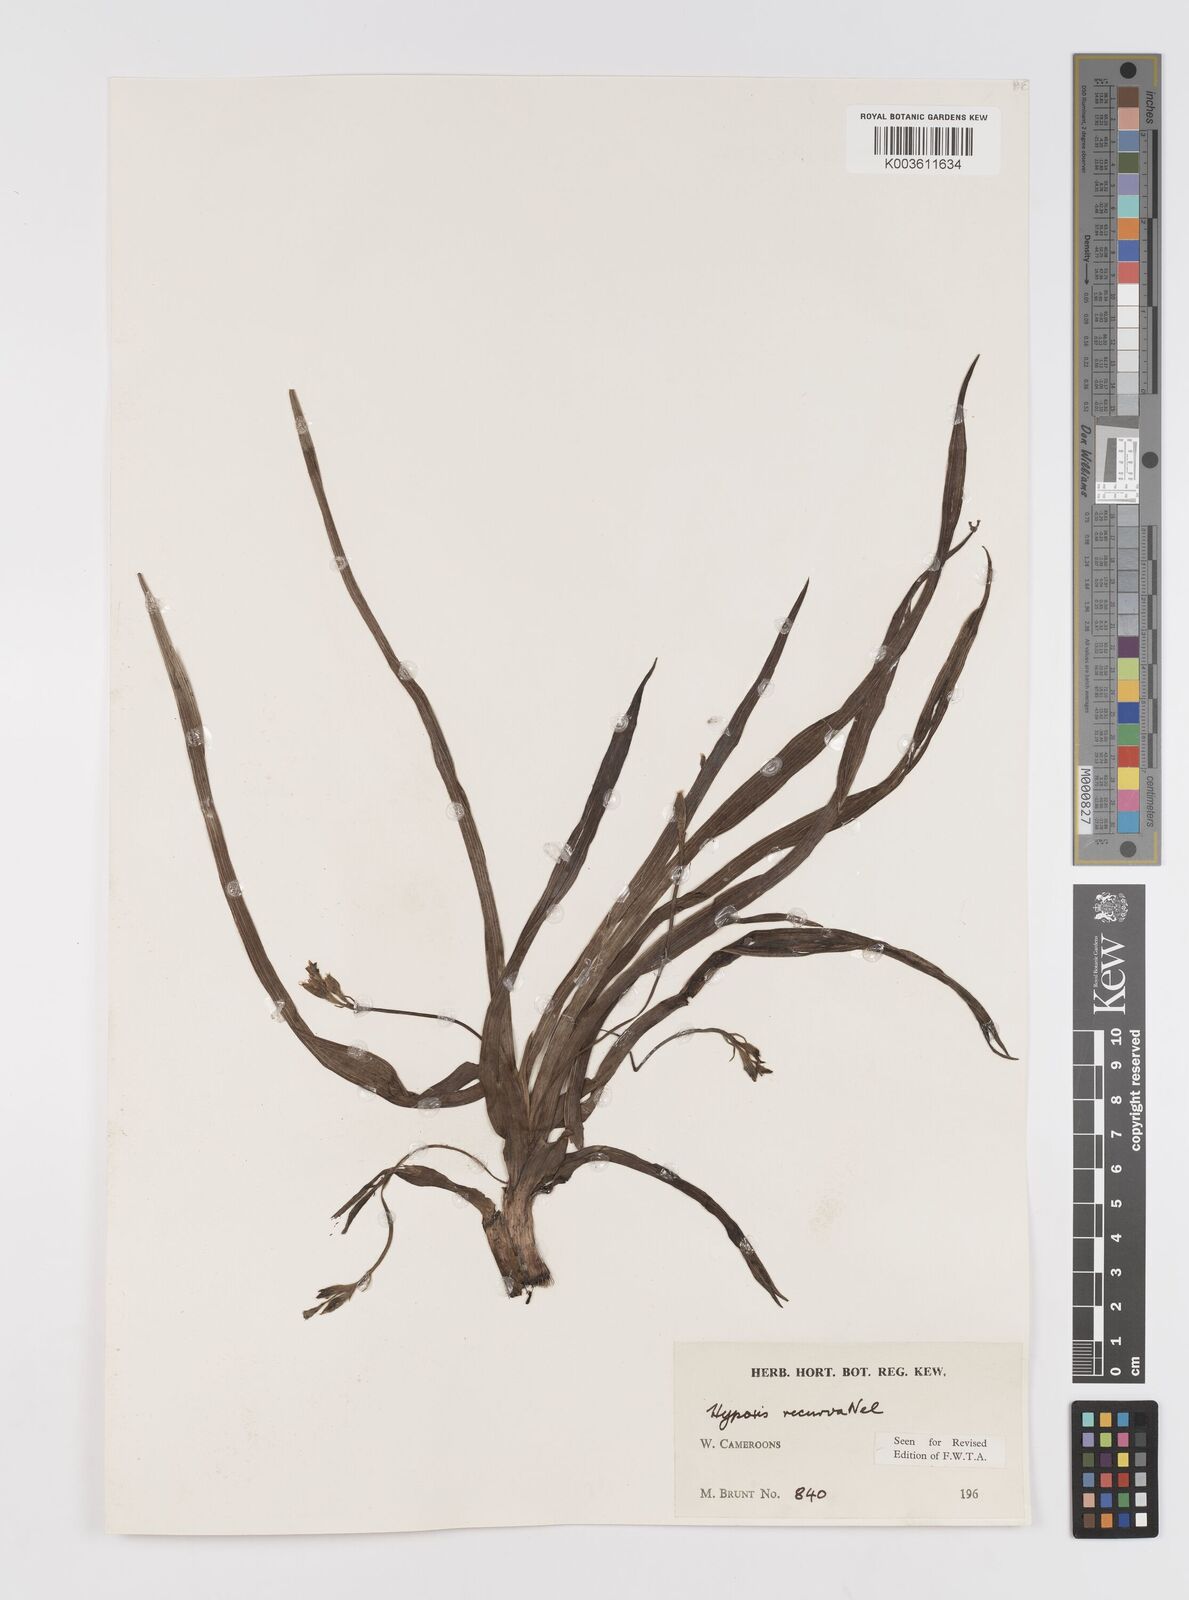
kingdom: Plantae
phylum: Tracheophyta
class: Liliopsida
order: Asparagales
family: Hypoxidaceae
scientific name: Hypoxidaceae
